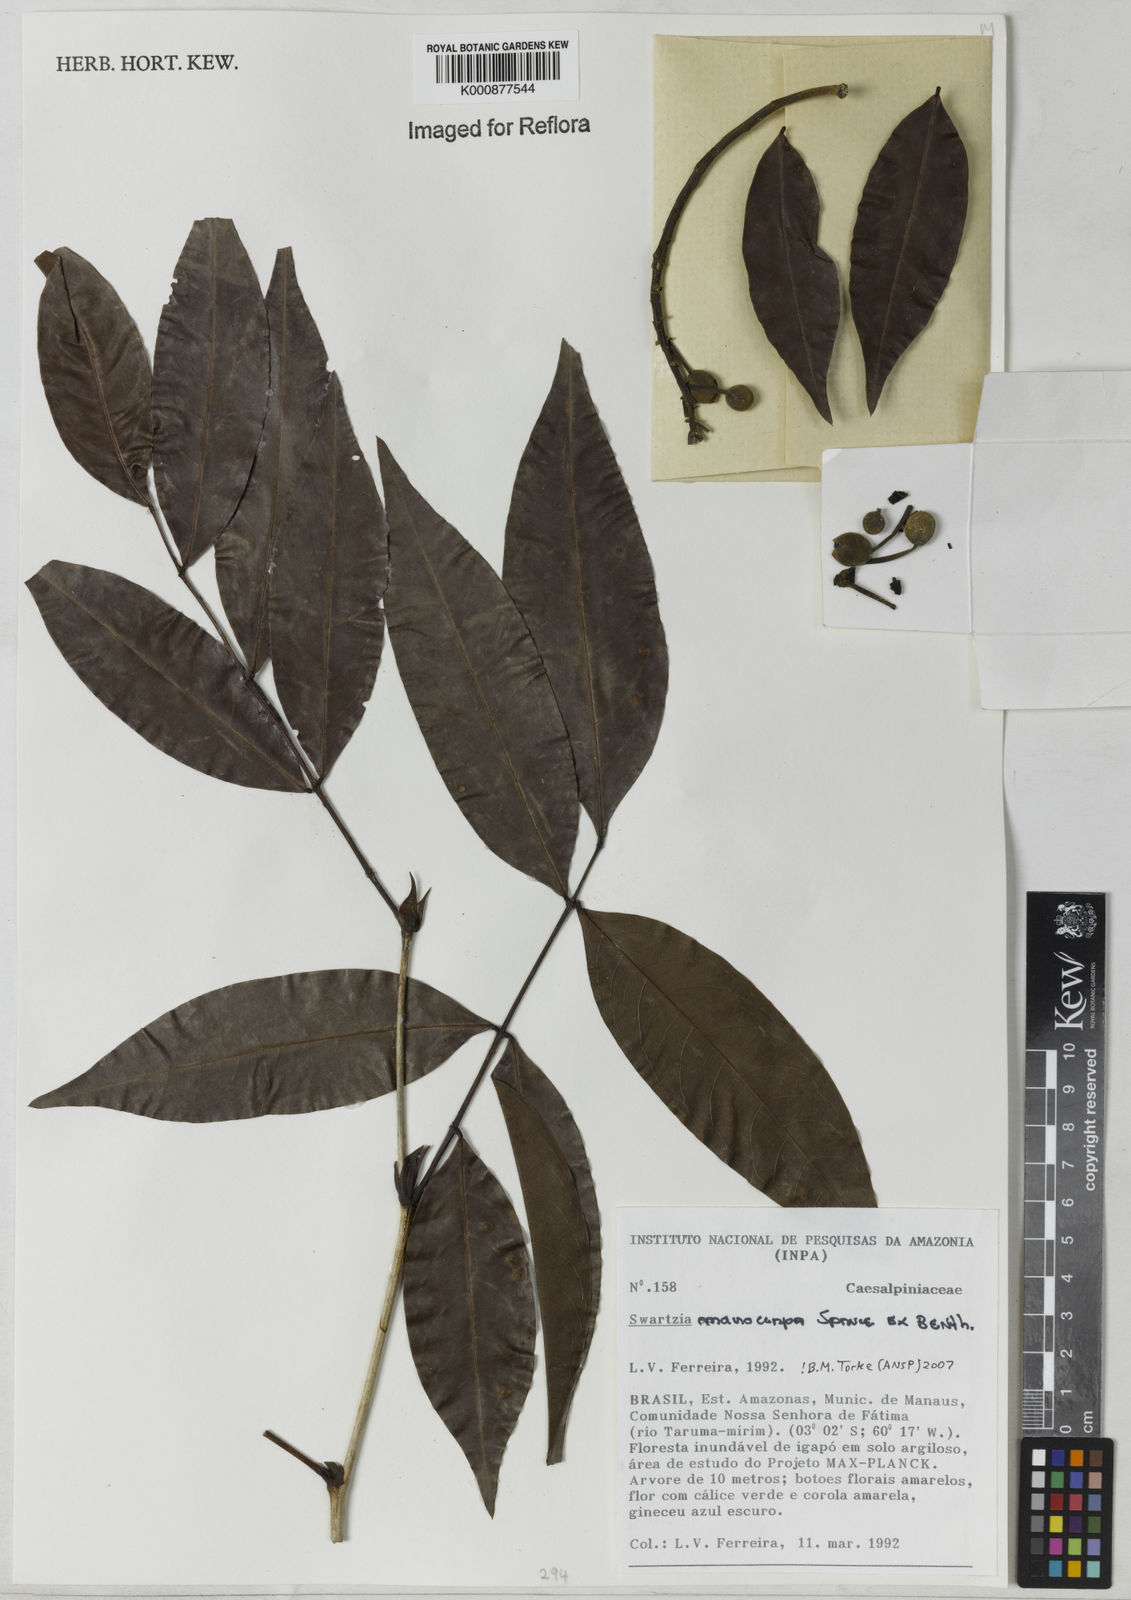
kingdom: Plantae
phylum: Tracheophyta
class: Magnoliopsida
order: Fabales
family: Fabaceae
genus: Swartzia
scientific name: Swartzia macrocarpa
